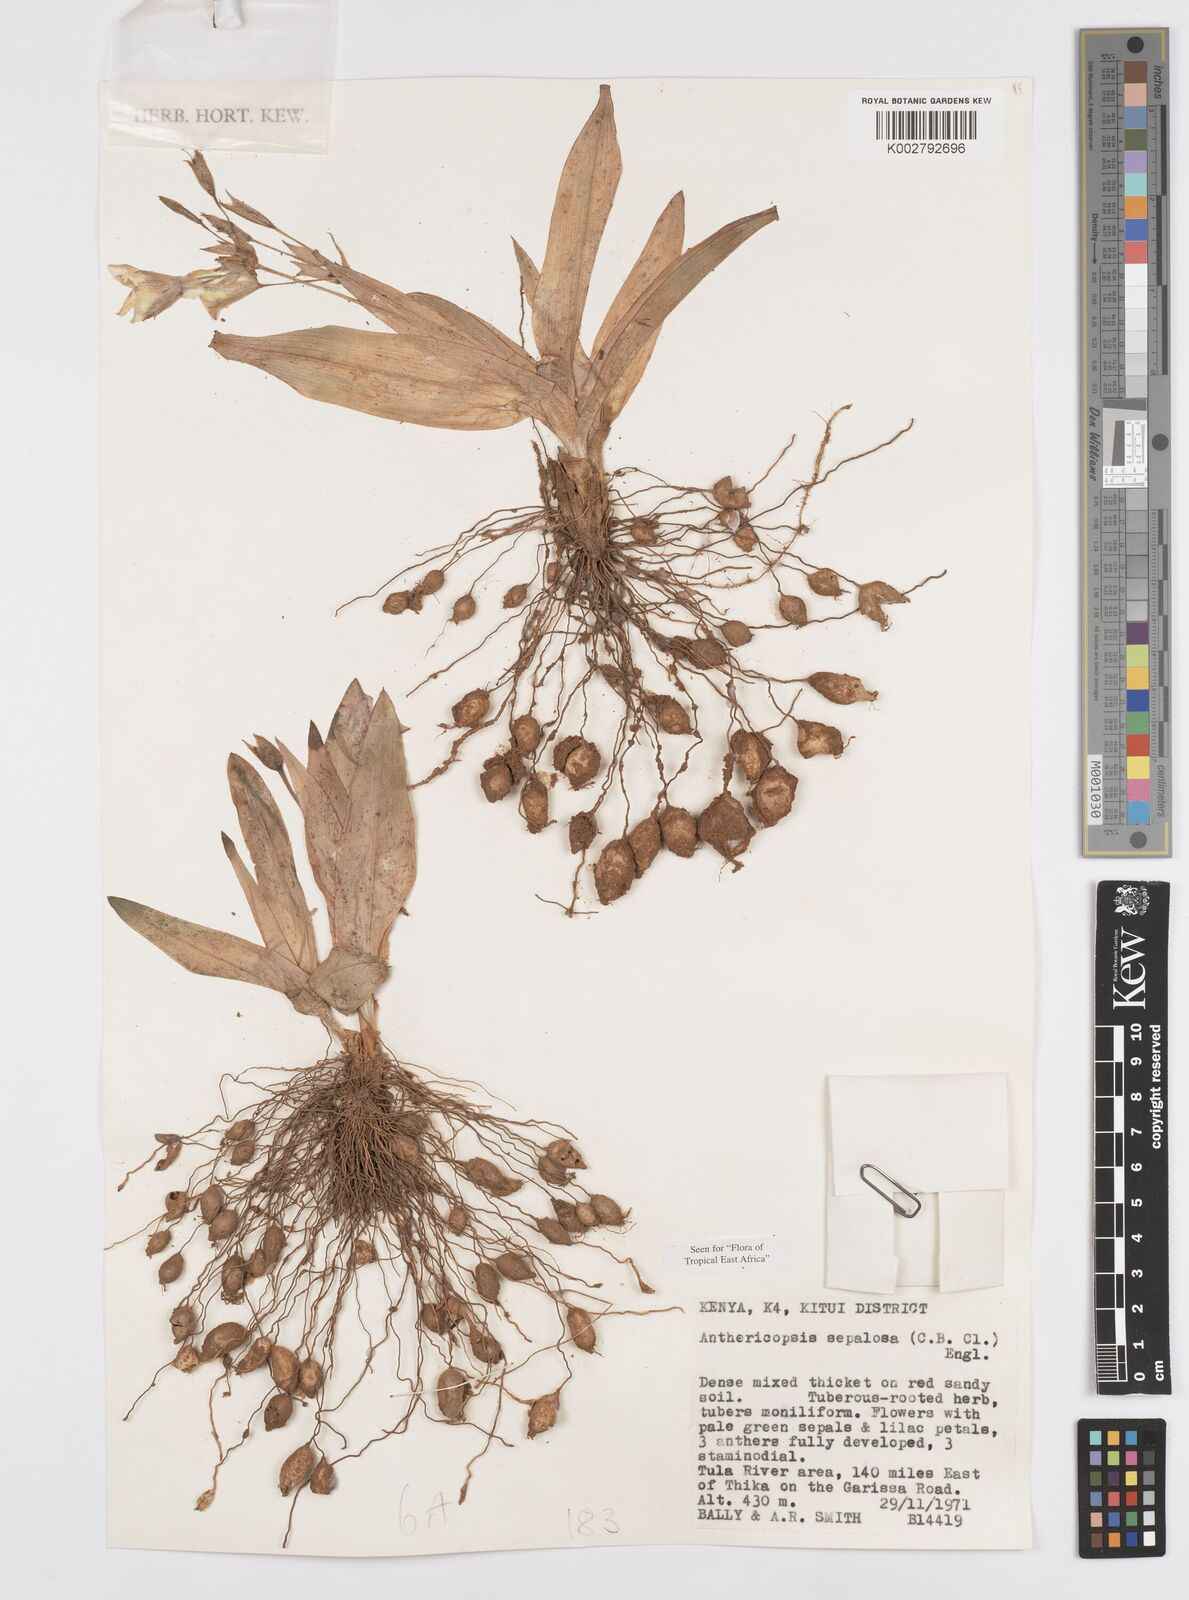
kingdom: Plantae
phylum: Tracheophyta
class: Liliopsida
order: Commelinales
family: Commelinaceae
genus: Anthericopsis
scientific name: Anthericopsis sepalosa
